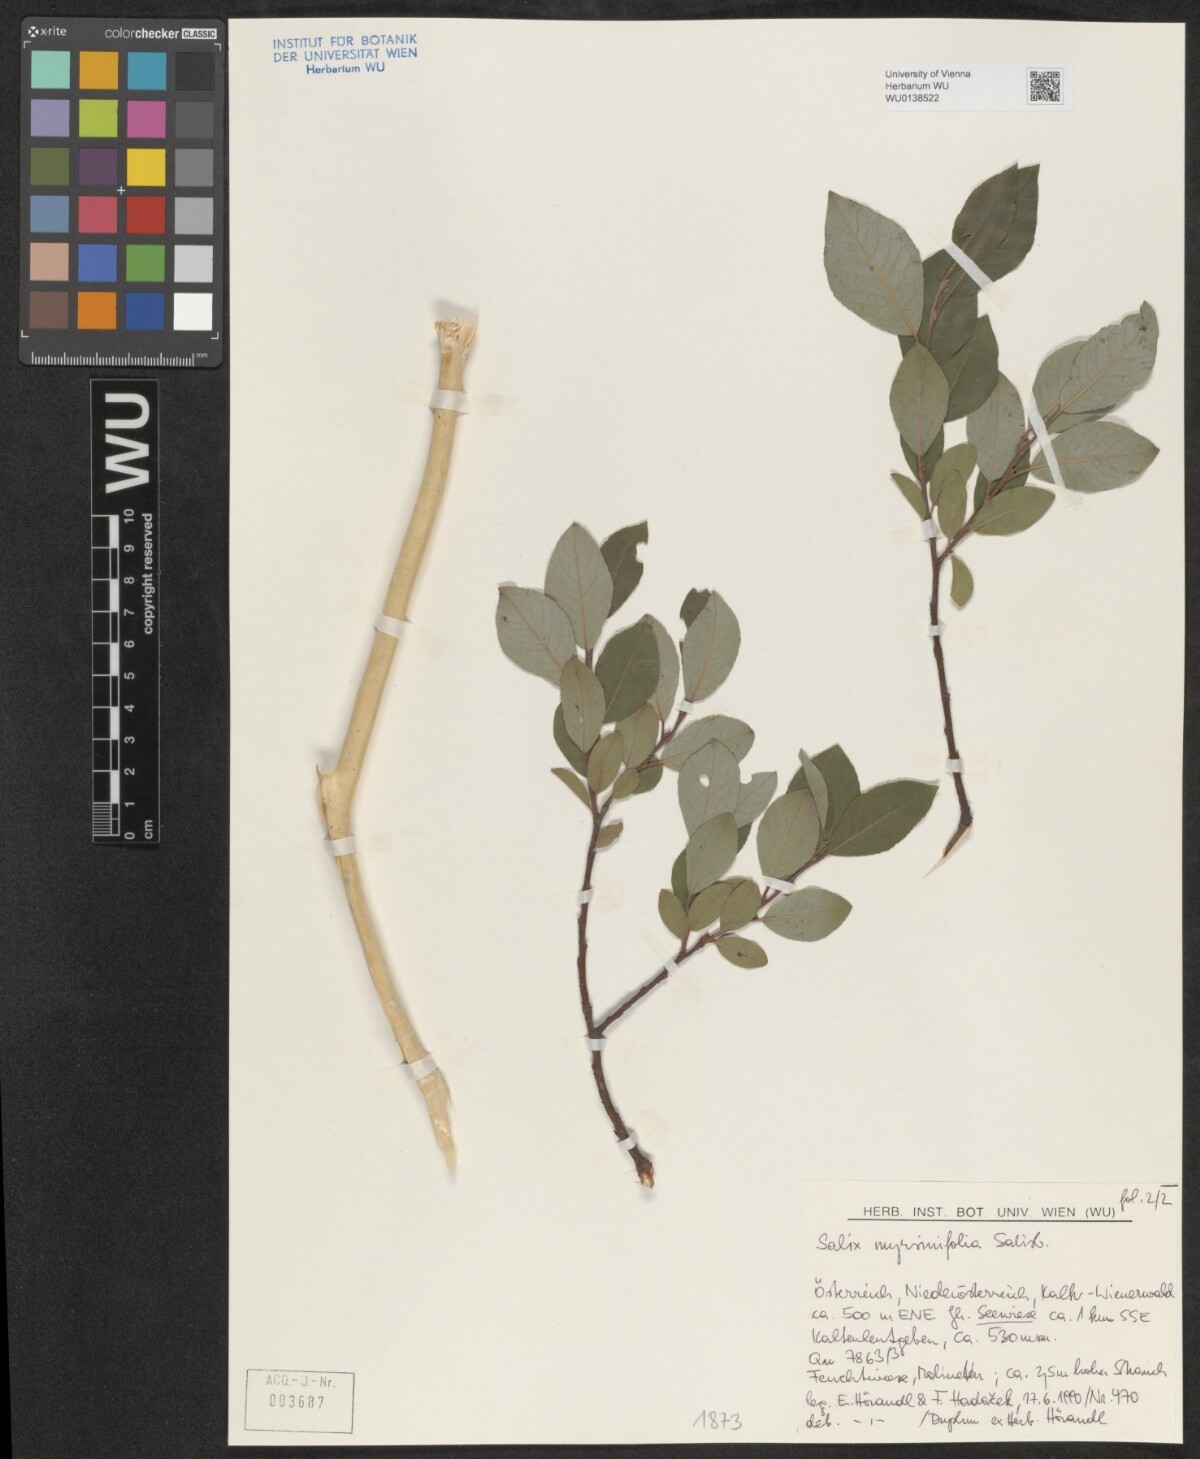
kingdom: Plantae
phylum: Tracheophyta
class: Magnoliopsida
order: Malpighiales
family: Salicaceae
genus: Salix
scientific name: Salix myrsinifolia
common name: Dark-leaved willow
